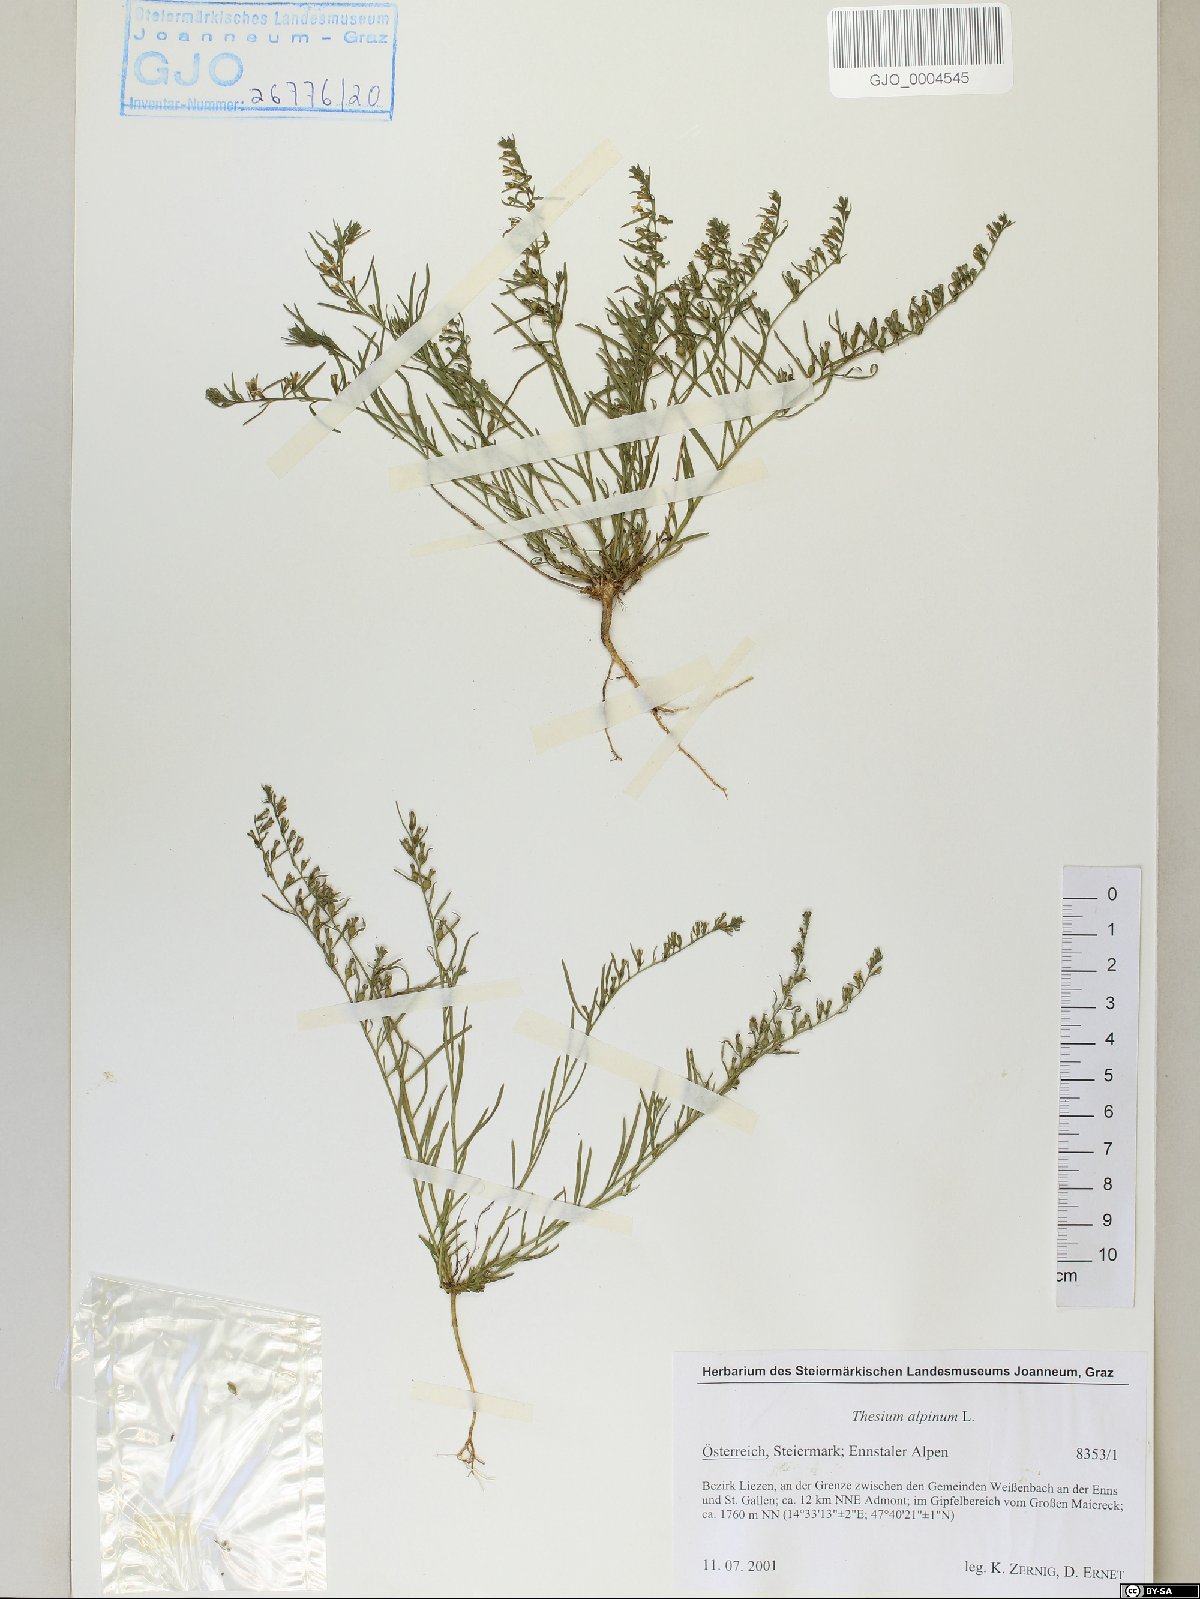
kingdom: Plantae
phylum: Tracheophyta
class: Magnoliopsida
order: Santalales
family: Thesiaceae
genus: Thesium
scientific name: Thesium alpinum
